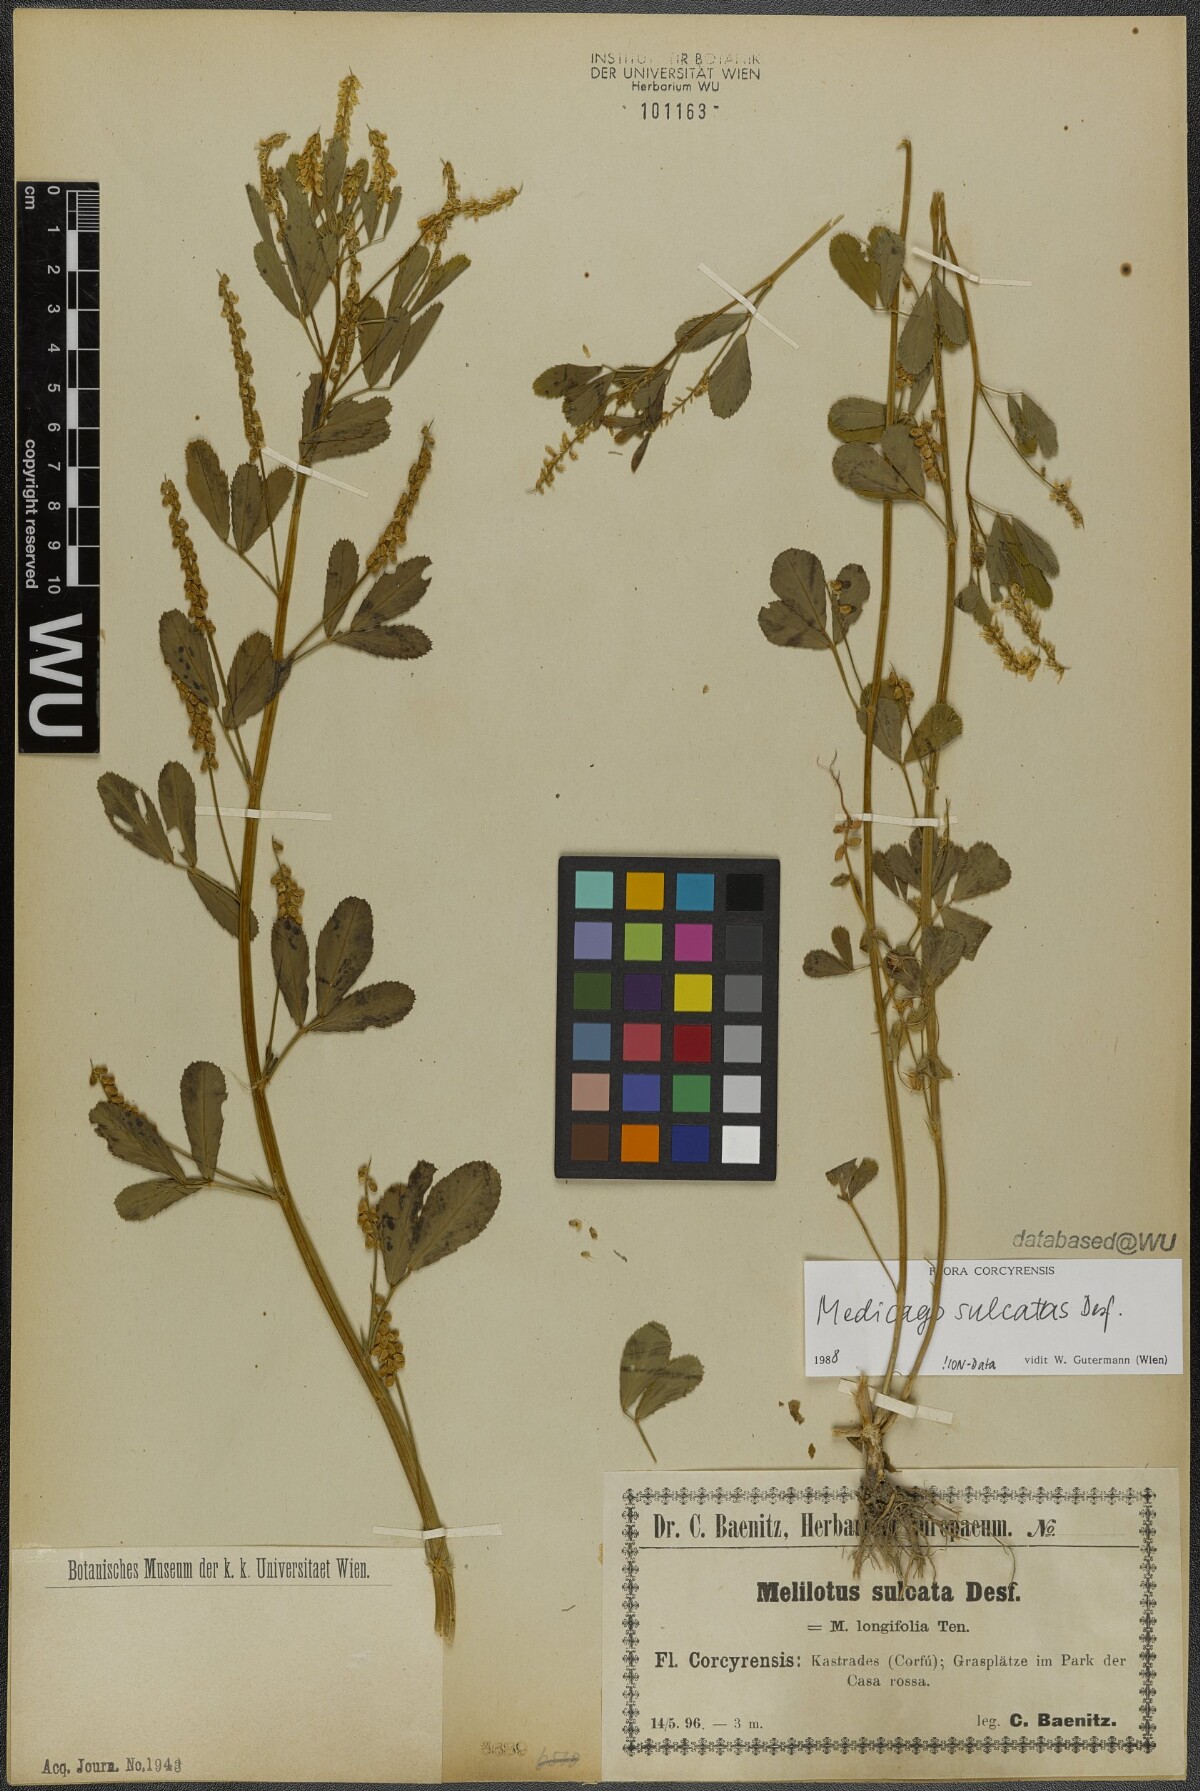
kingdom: Plantae
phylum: Tracheophyta
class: Magnoliopsida
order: Fabales
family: Fabaceae
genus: Melilotus
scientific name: Melilotus sulcatus
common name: Furrowed melilot
